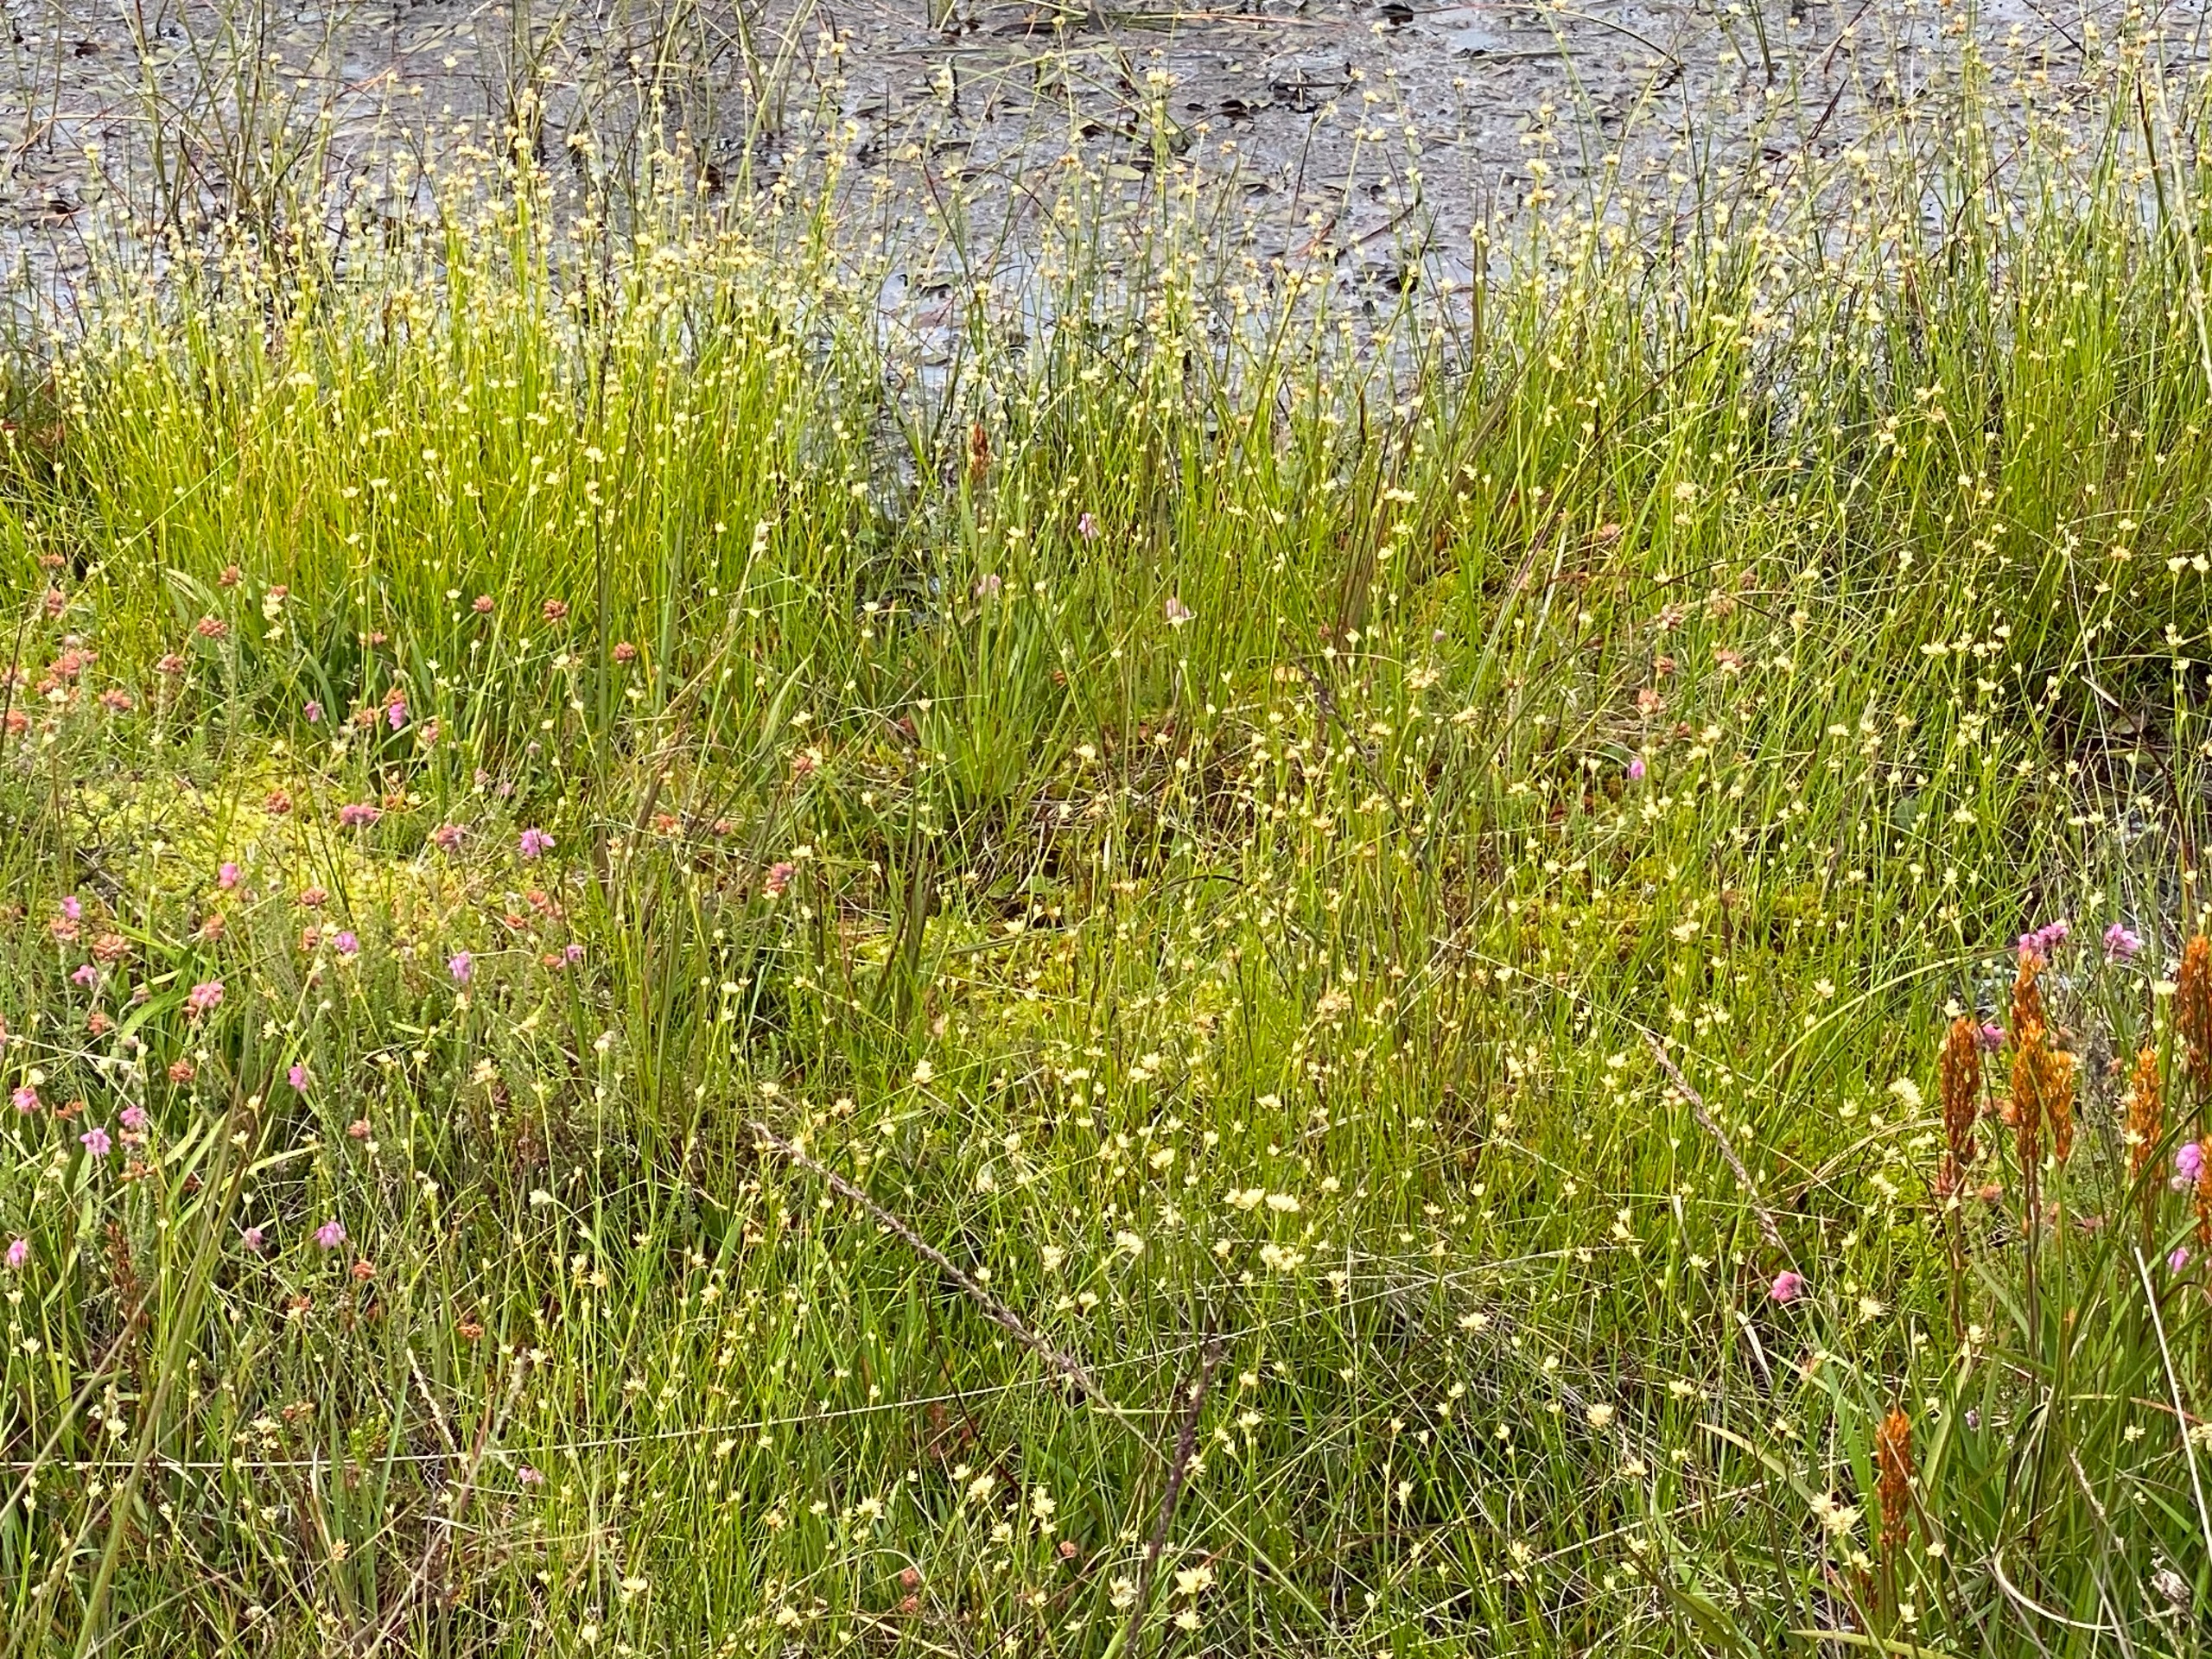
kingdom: Plantae
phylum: Tracheophyta
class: Liliopsida
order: Poales
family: Cyperaceae
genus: Rhynchospora
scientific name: Rhynchospora alba
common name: Hvid næbfrø
